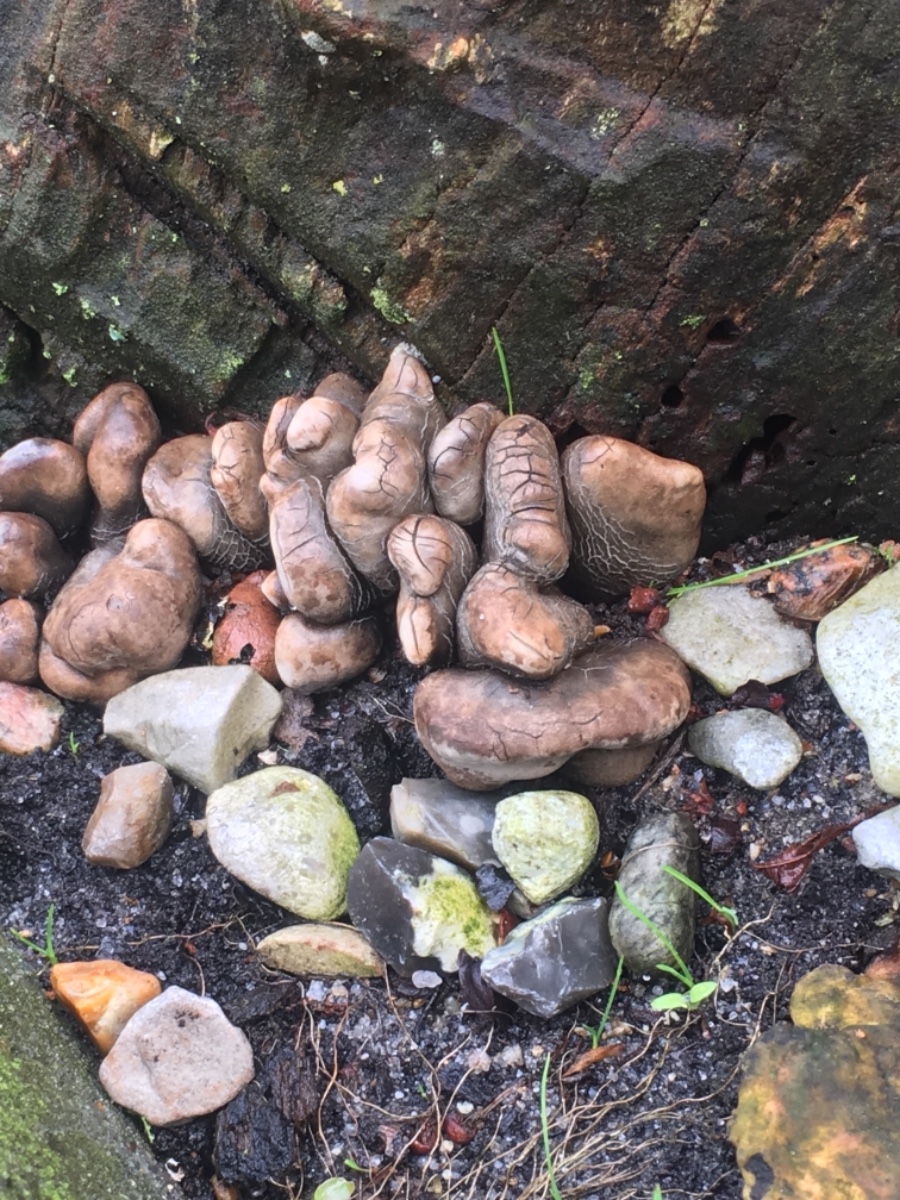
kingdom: Fungi
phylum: Ascomycota
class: Sordariomycetes
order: Xylariales
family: Xylariaceae
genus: Xylaria
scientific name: Xylaria polymorpha
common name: kølle-stødsvamp
